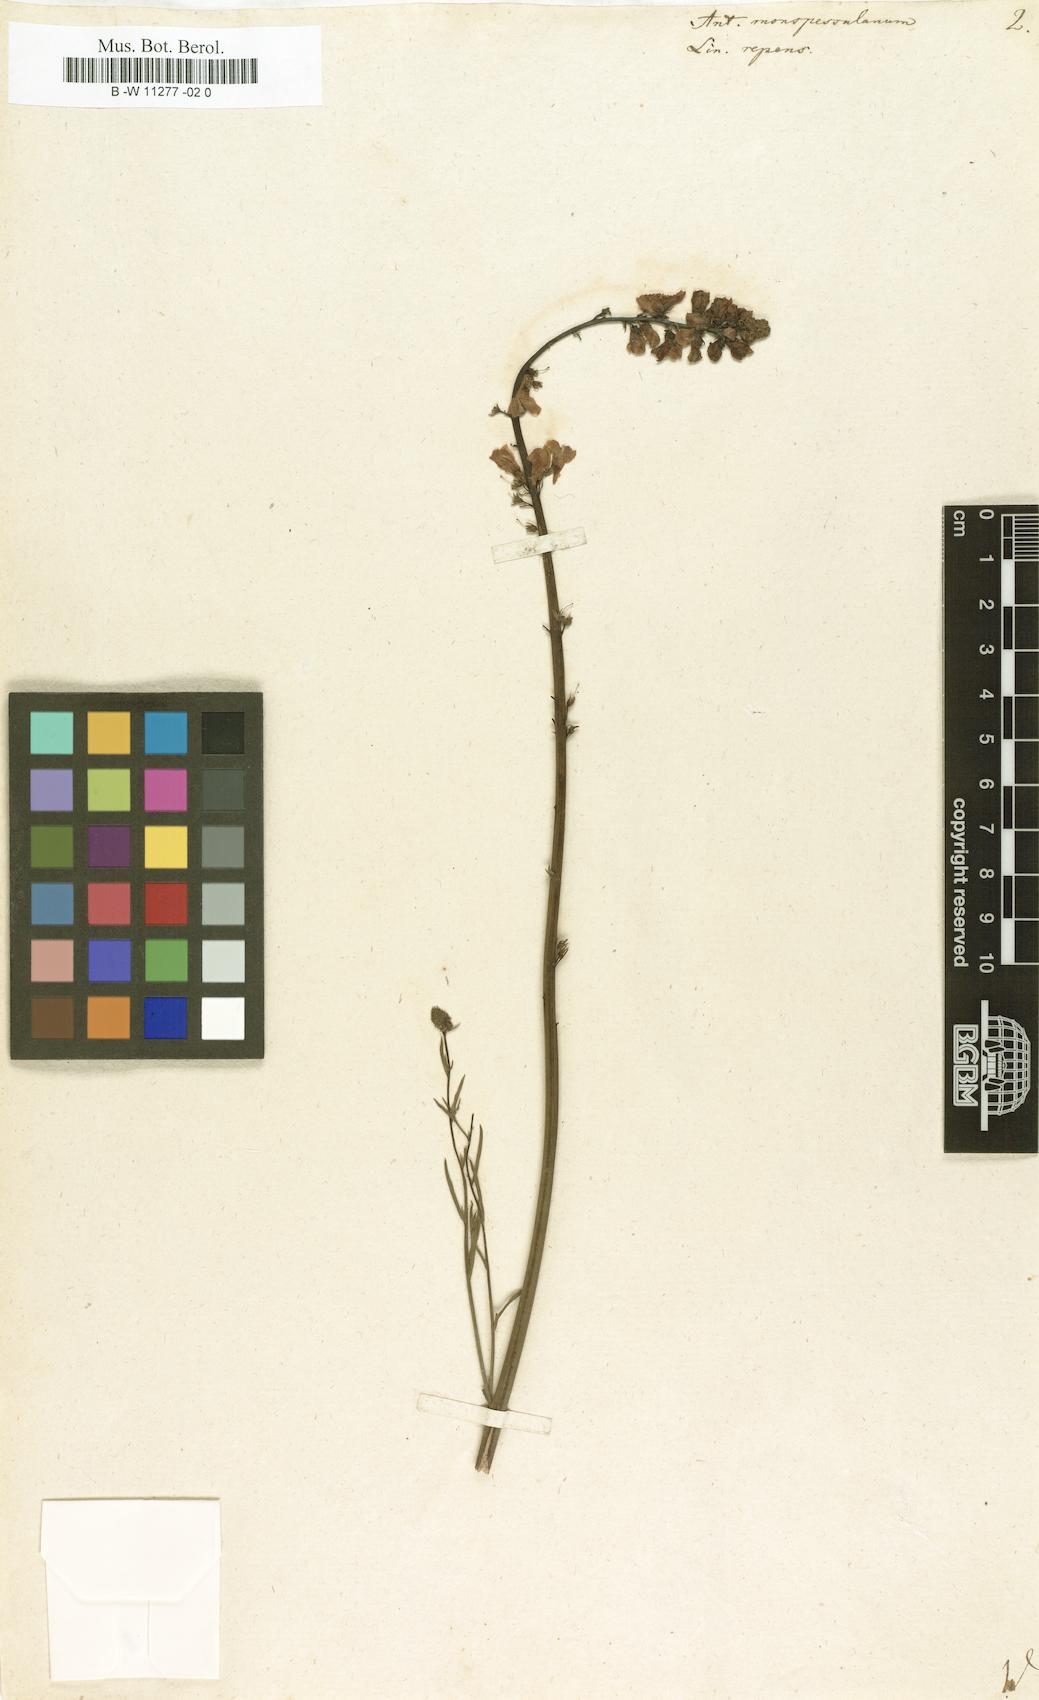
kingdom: Plantae
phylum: Tracheophyta
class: Magnoliopsida
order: Lamiales
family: Plantaginaceae
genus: Linaria
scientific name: Linaria repens
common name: Pale toadflax
